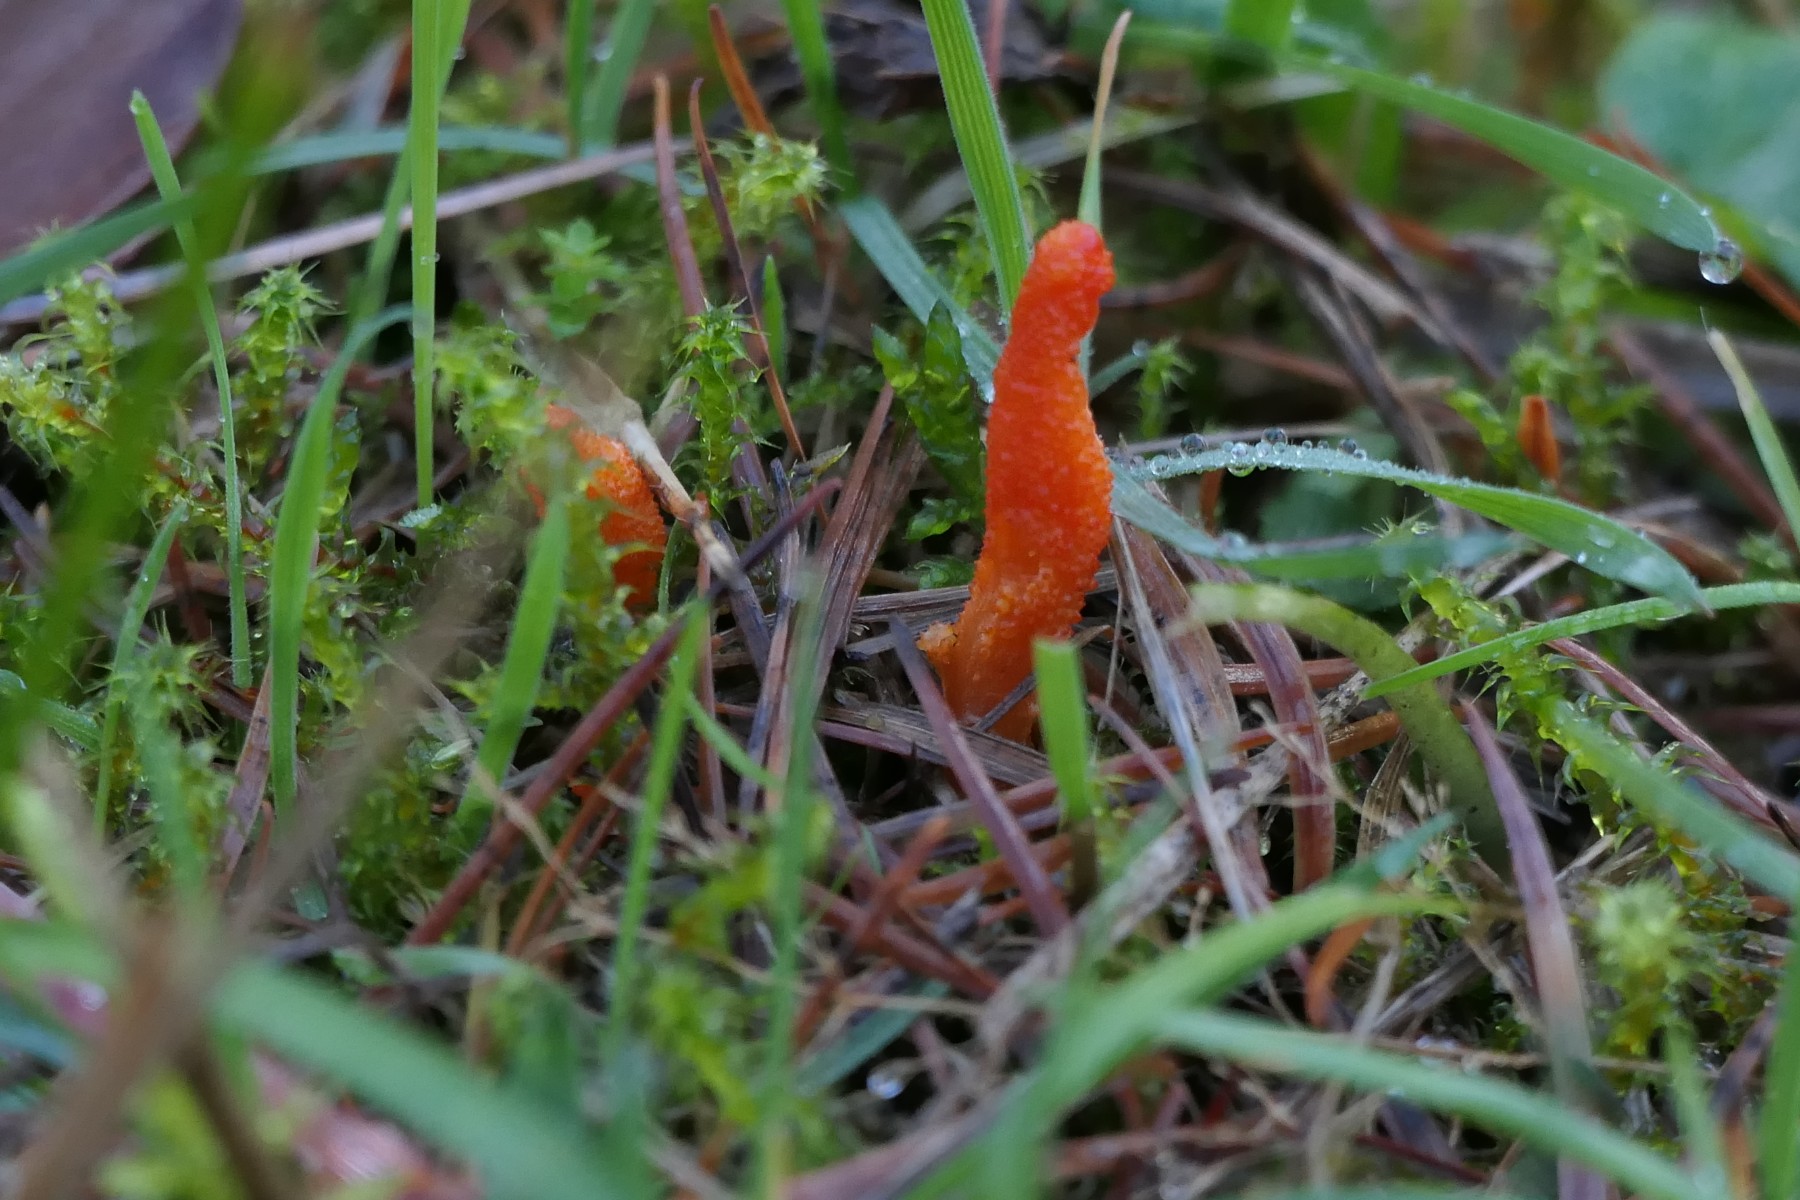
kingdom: Fungi
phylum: Ascomycota
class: Sordariomycetes
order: Hypocreales
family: Cordycipitaceae
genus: Cordyceps
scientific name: Cordyceps militaris
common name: puppe-snyltekølle
